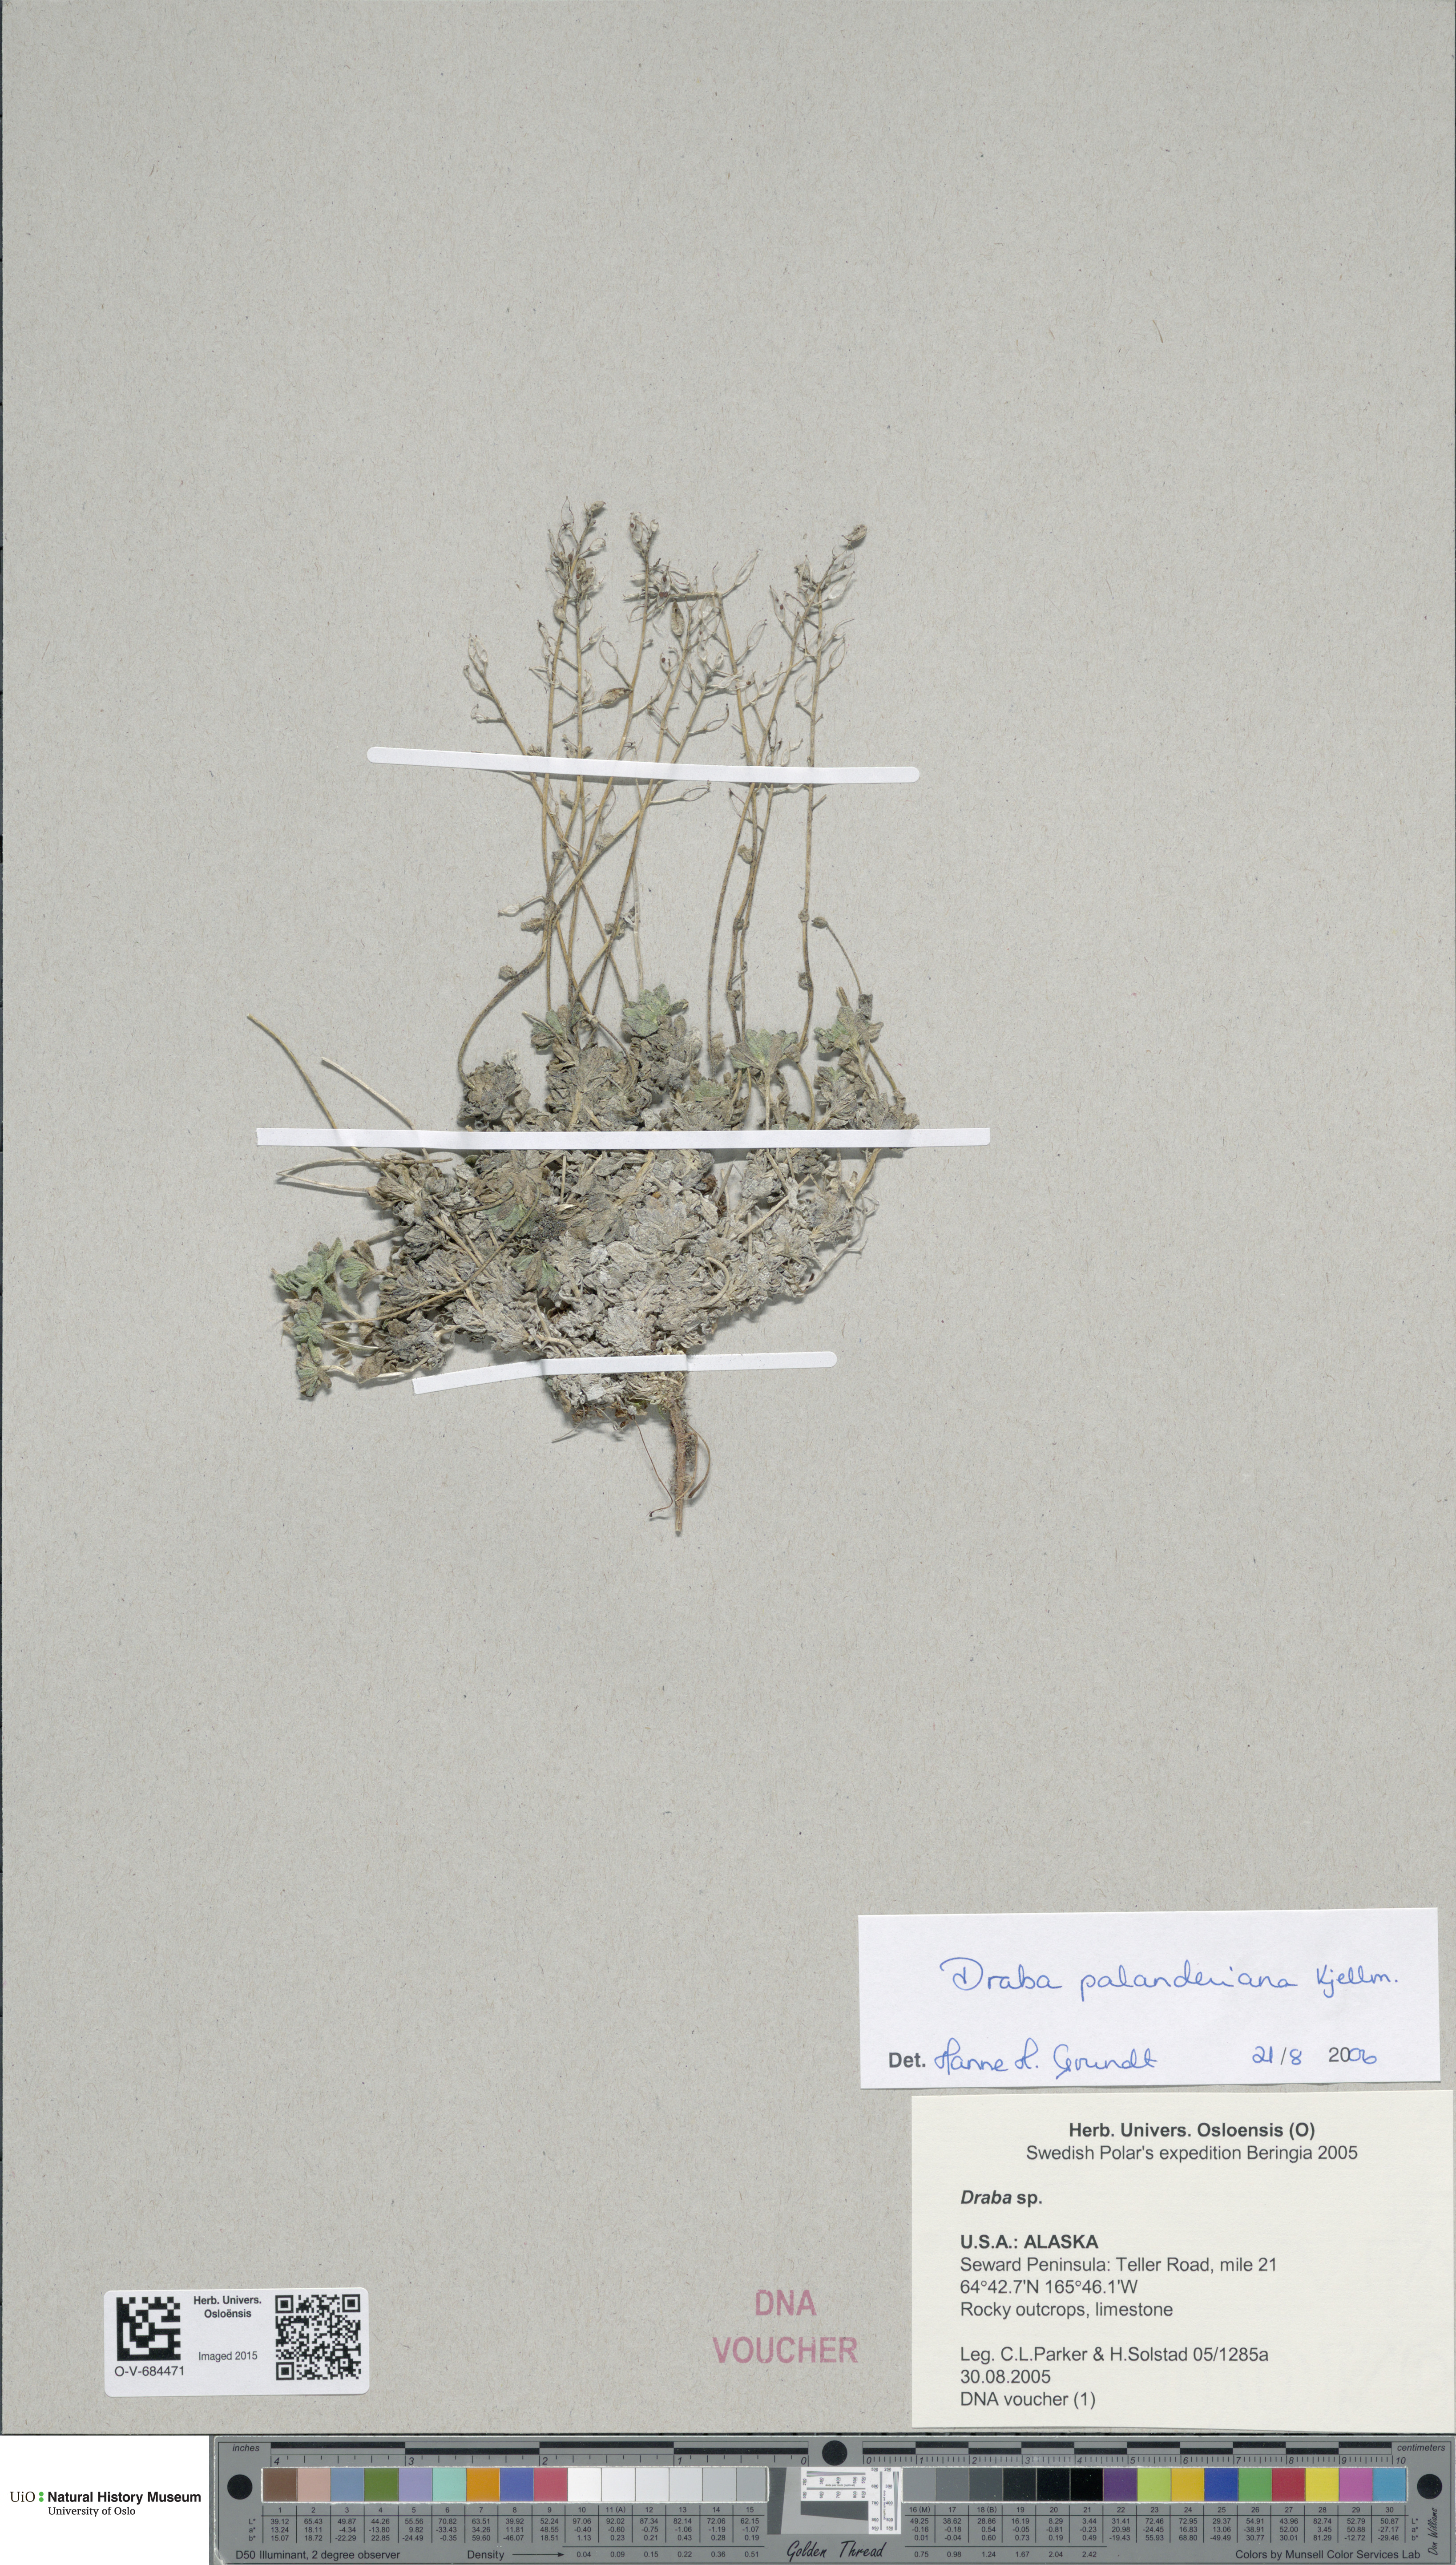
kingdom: Plantae
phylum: Tracheophyta
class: Magnoliopsida
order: Brassicales
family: Brassicaceae
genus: Draba
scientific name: Draba palanderiana
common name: Palander's draba
